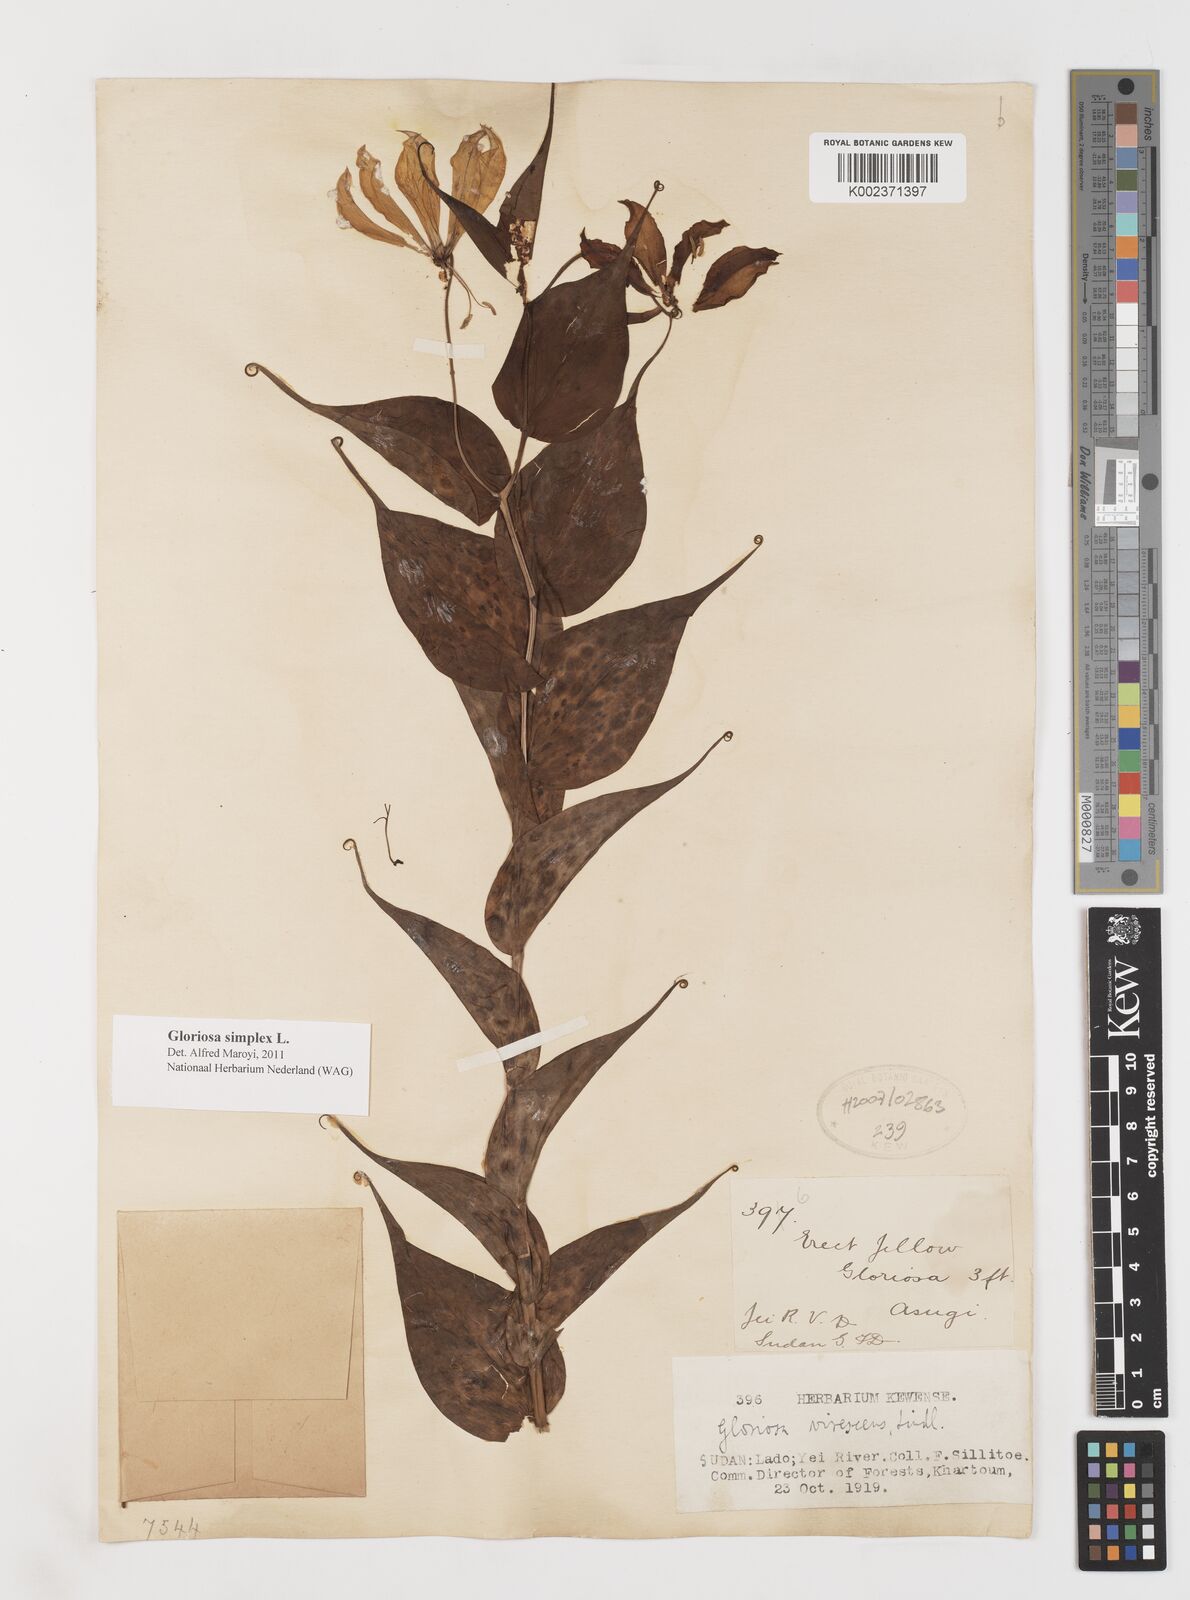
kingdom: Plantae
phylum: Tracheophyta
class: Liliopsida
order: Liliales
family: Colchicaceae
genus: Gloriosa
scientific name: Gloriosa simplex
